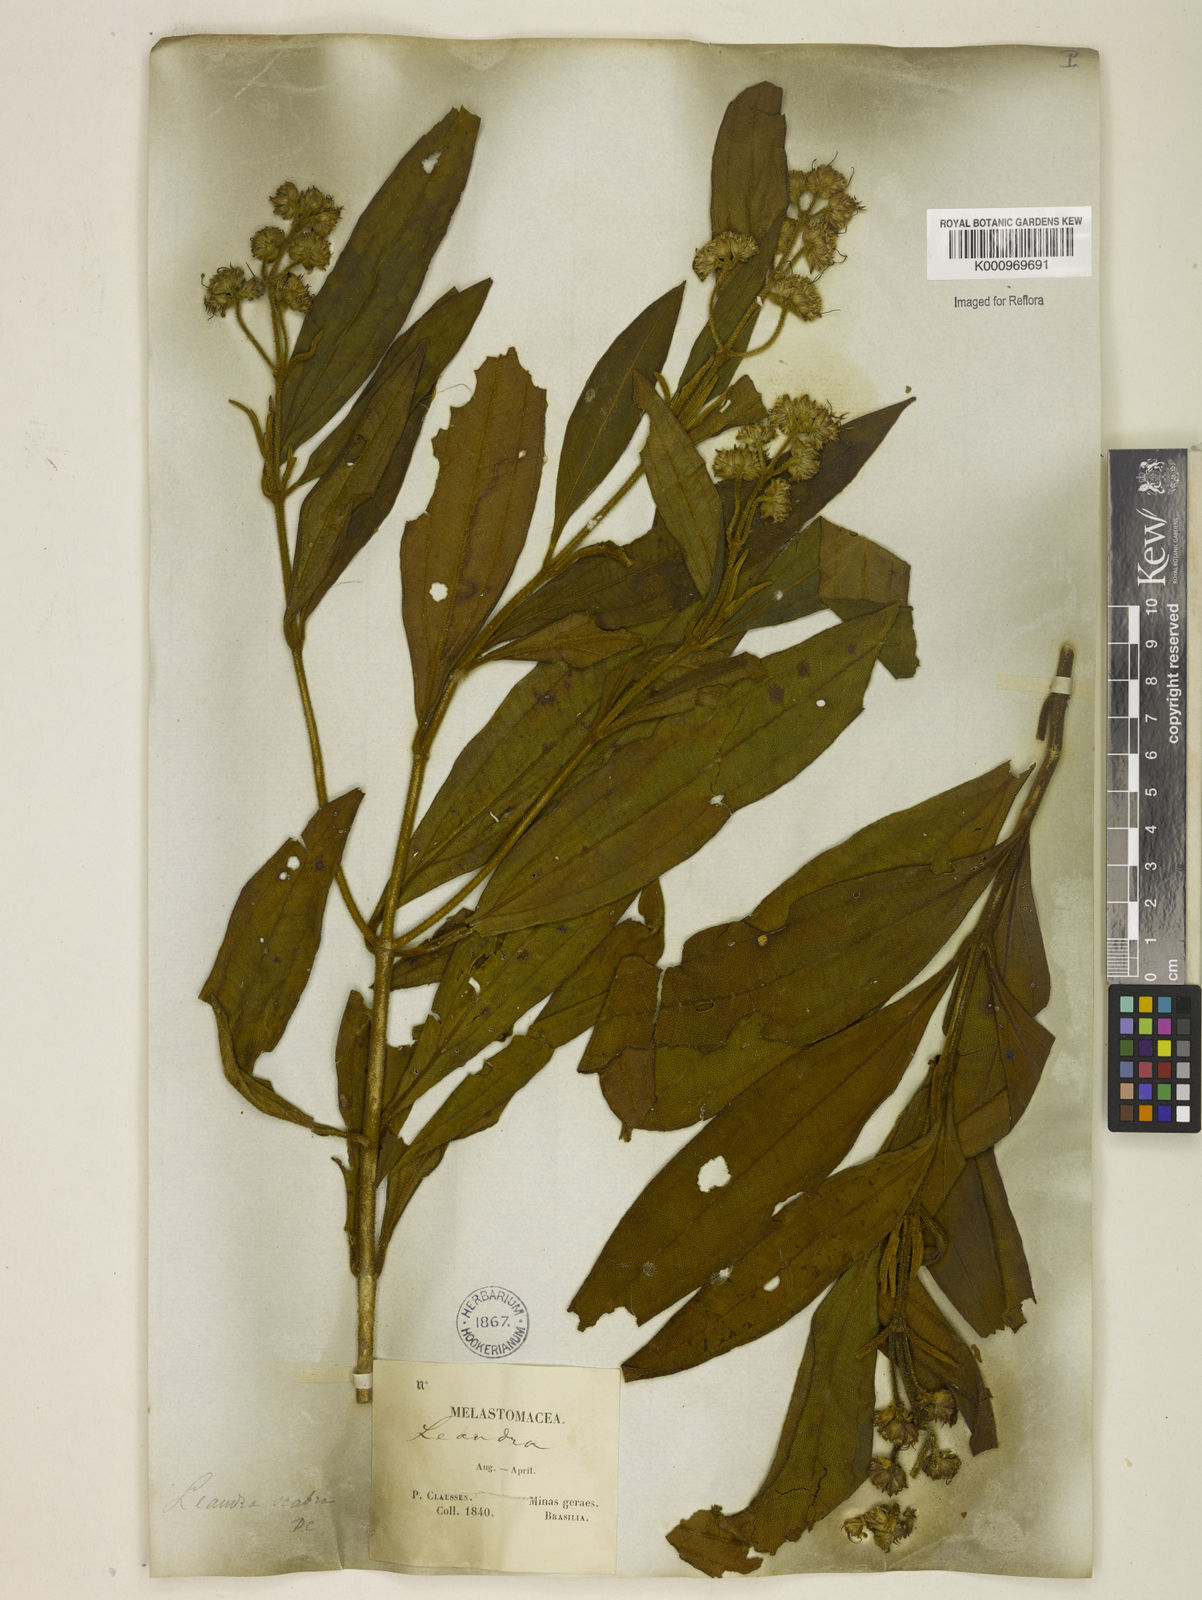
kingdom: Plantae
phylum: Tracheophyta
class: Magnoliopsida
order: Myrtales
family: Melastomataceae
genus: Miconia
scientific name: Miconia melastomoides
